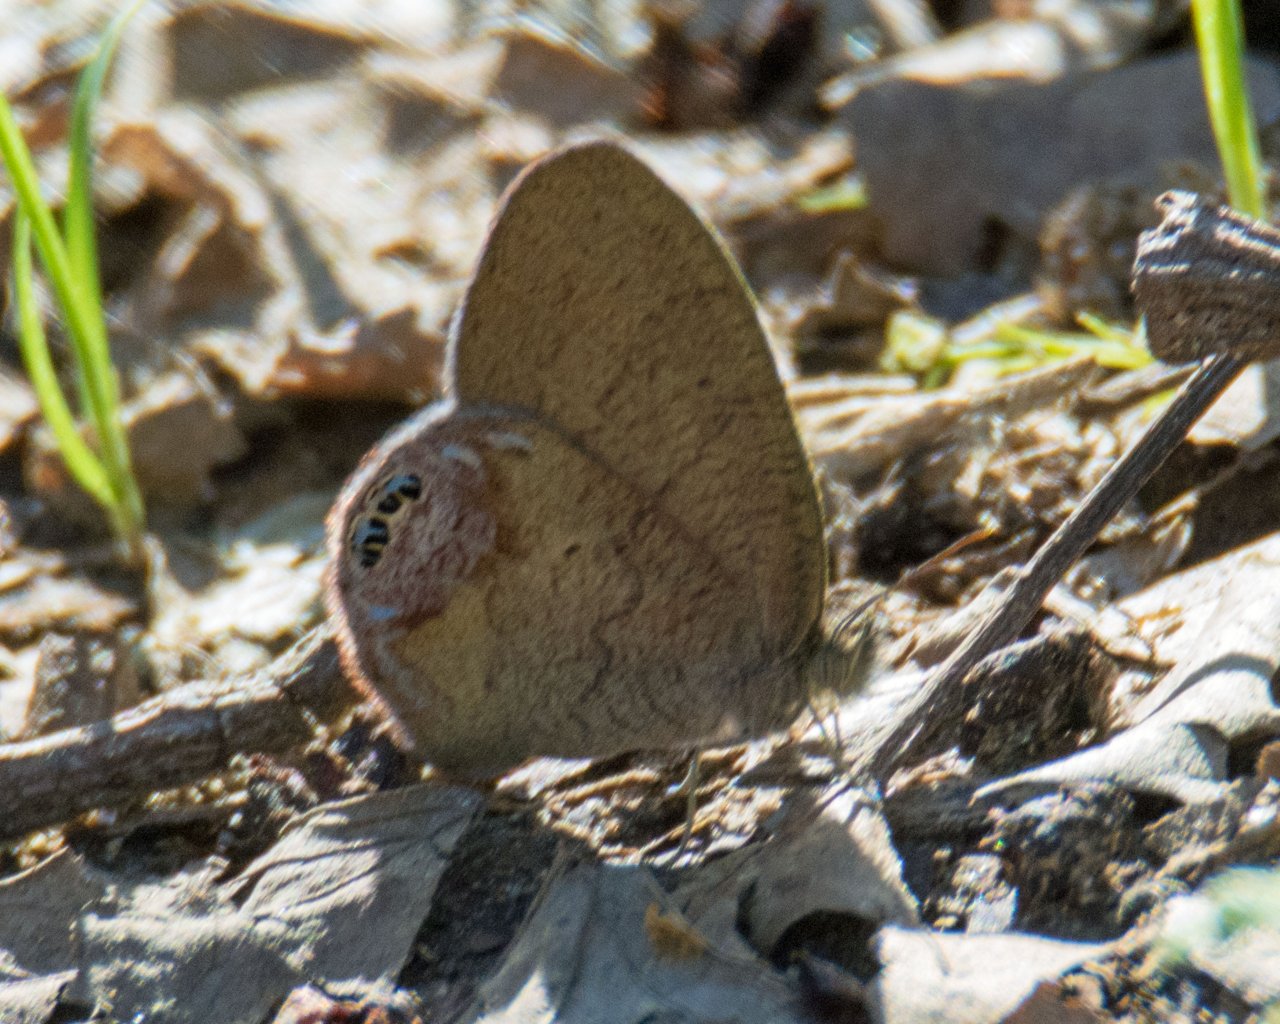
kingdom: Animalia
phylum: Arthropoda
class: Insecta
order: Lepidoptera
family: Nymphalidae
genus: Euptychia
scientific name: Euptychia cornelius
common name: Gemmed Satyr
